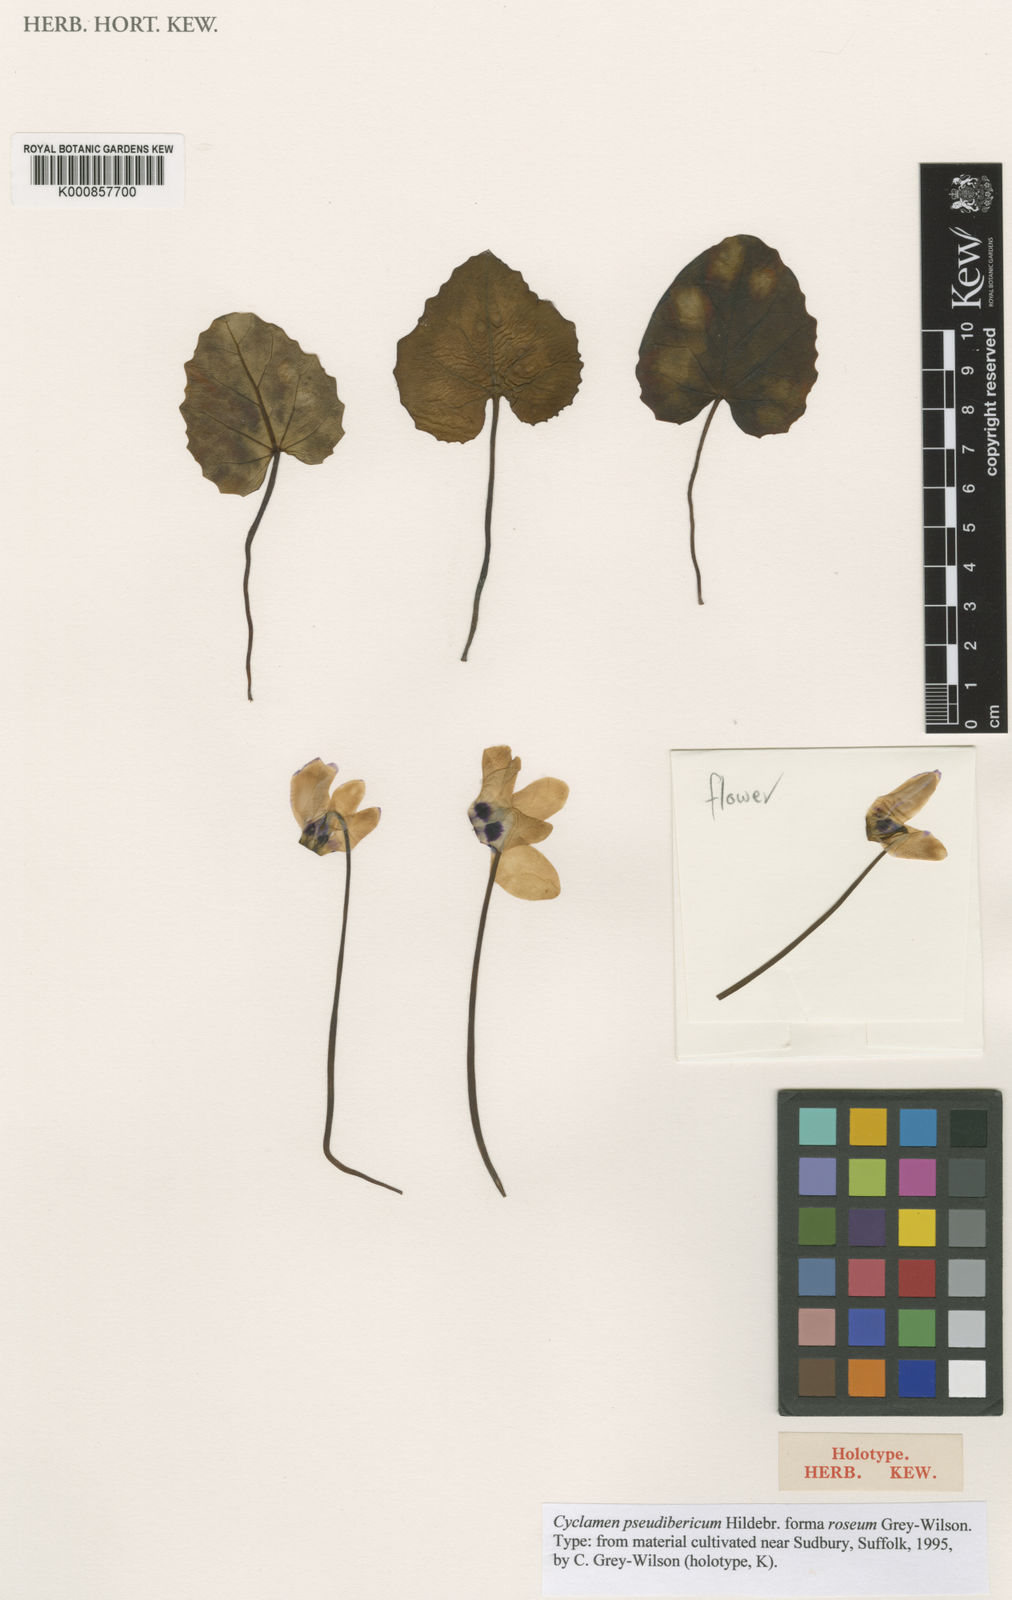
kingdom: Plantae
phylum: Tracheophyta
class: Magnoliopsida
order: Ericales
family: Primulaceae
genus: Cyclamen
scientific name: Cyclamen pseudibericum
